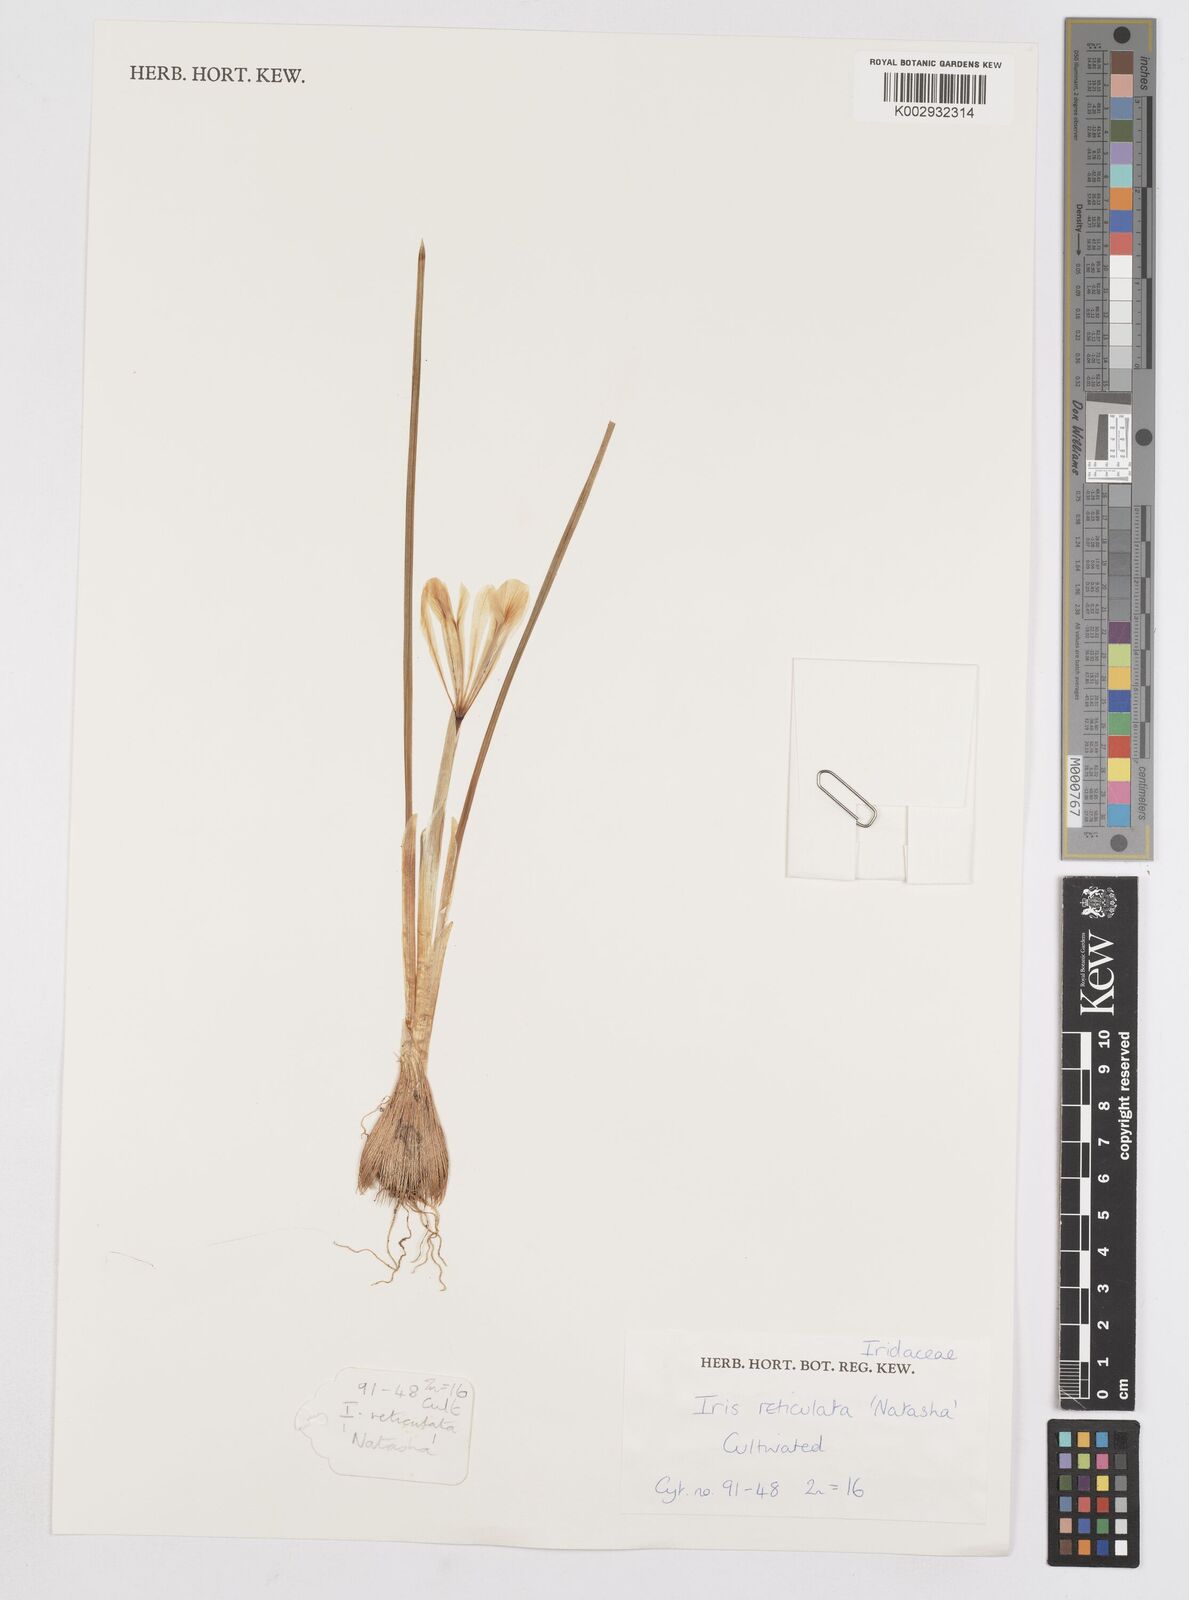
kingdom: Plantae
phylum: Tracheophyta
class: Liliopsida
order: Asparagales
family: Iridaceae
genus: Iris
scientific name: Iris reticulata
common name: Netted iris
